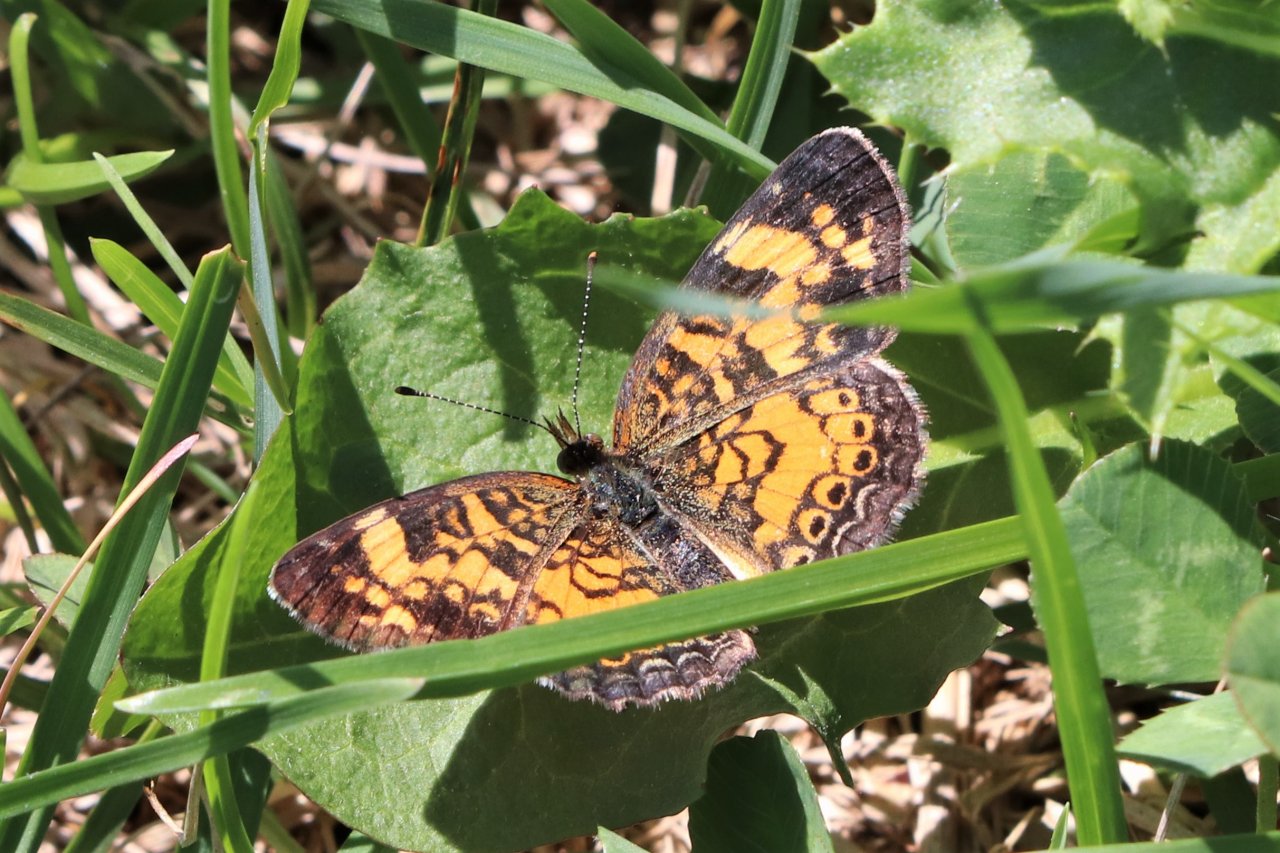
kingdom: Animalia
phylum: Arthropoda
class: Insecta
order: Lepidoptera
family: Nymphalidae
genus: Phyciodes
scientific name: Phyciodes tharos
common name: Pearl Crescent
